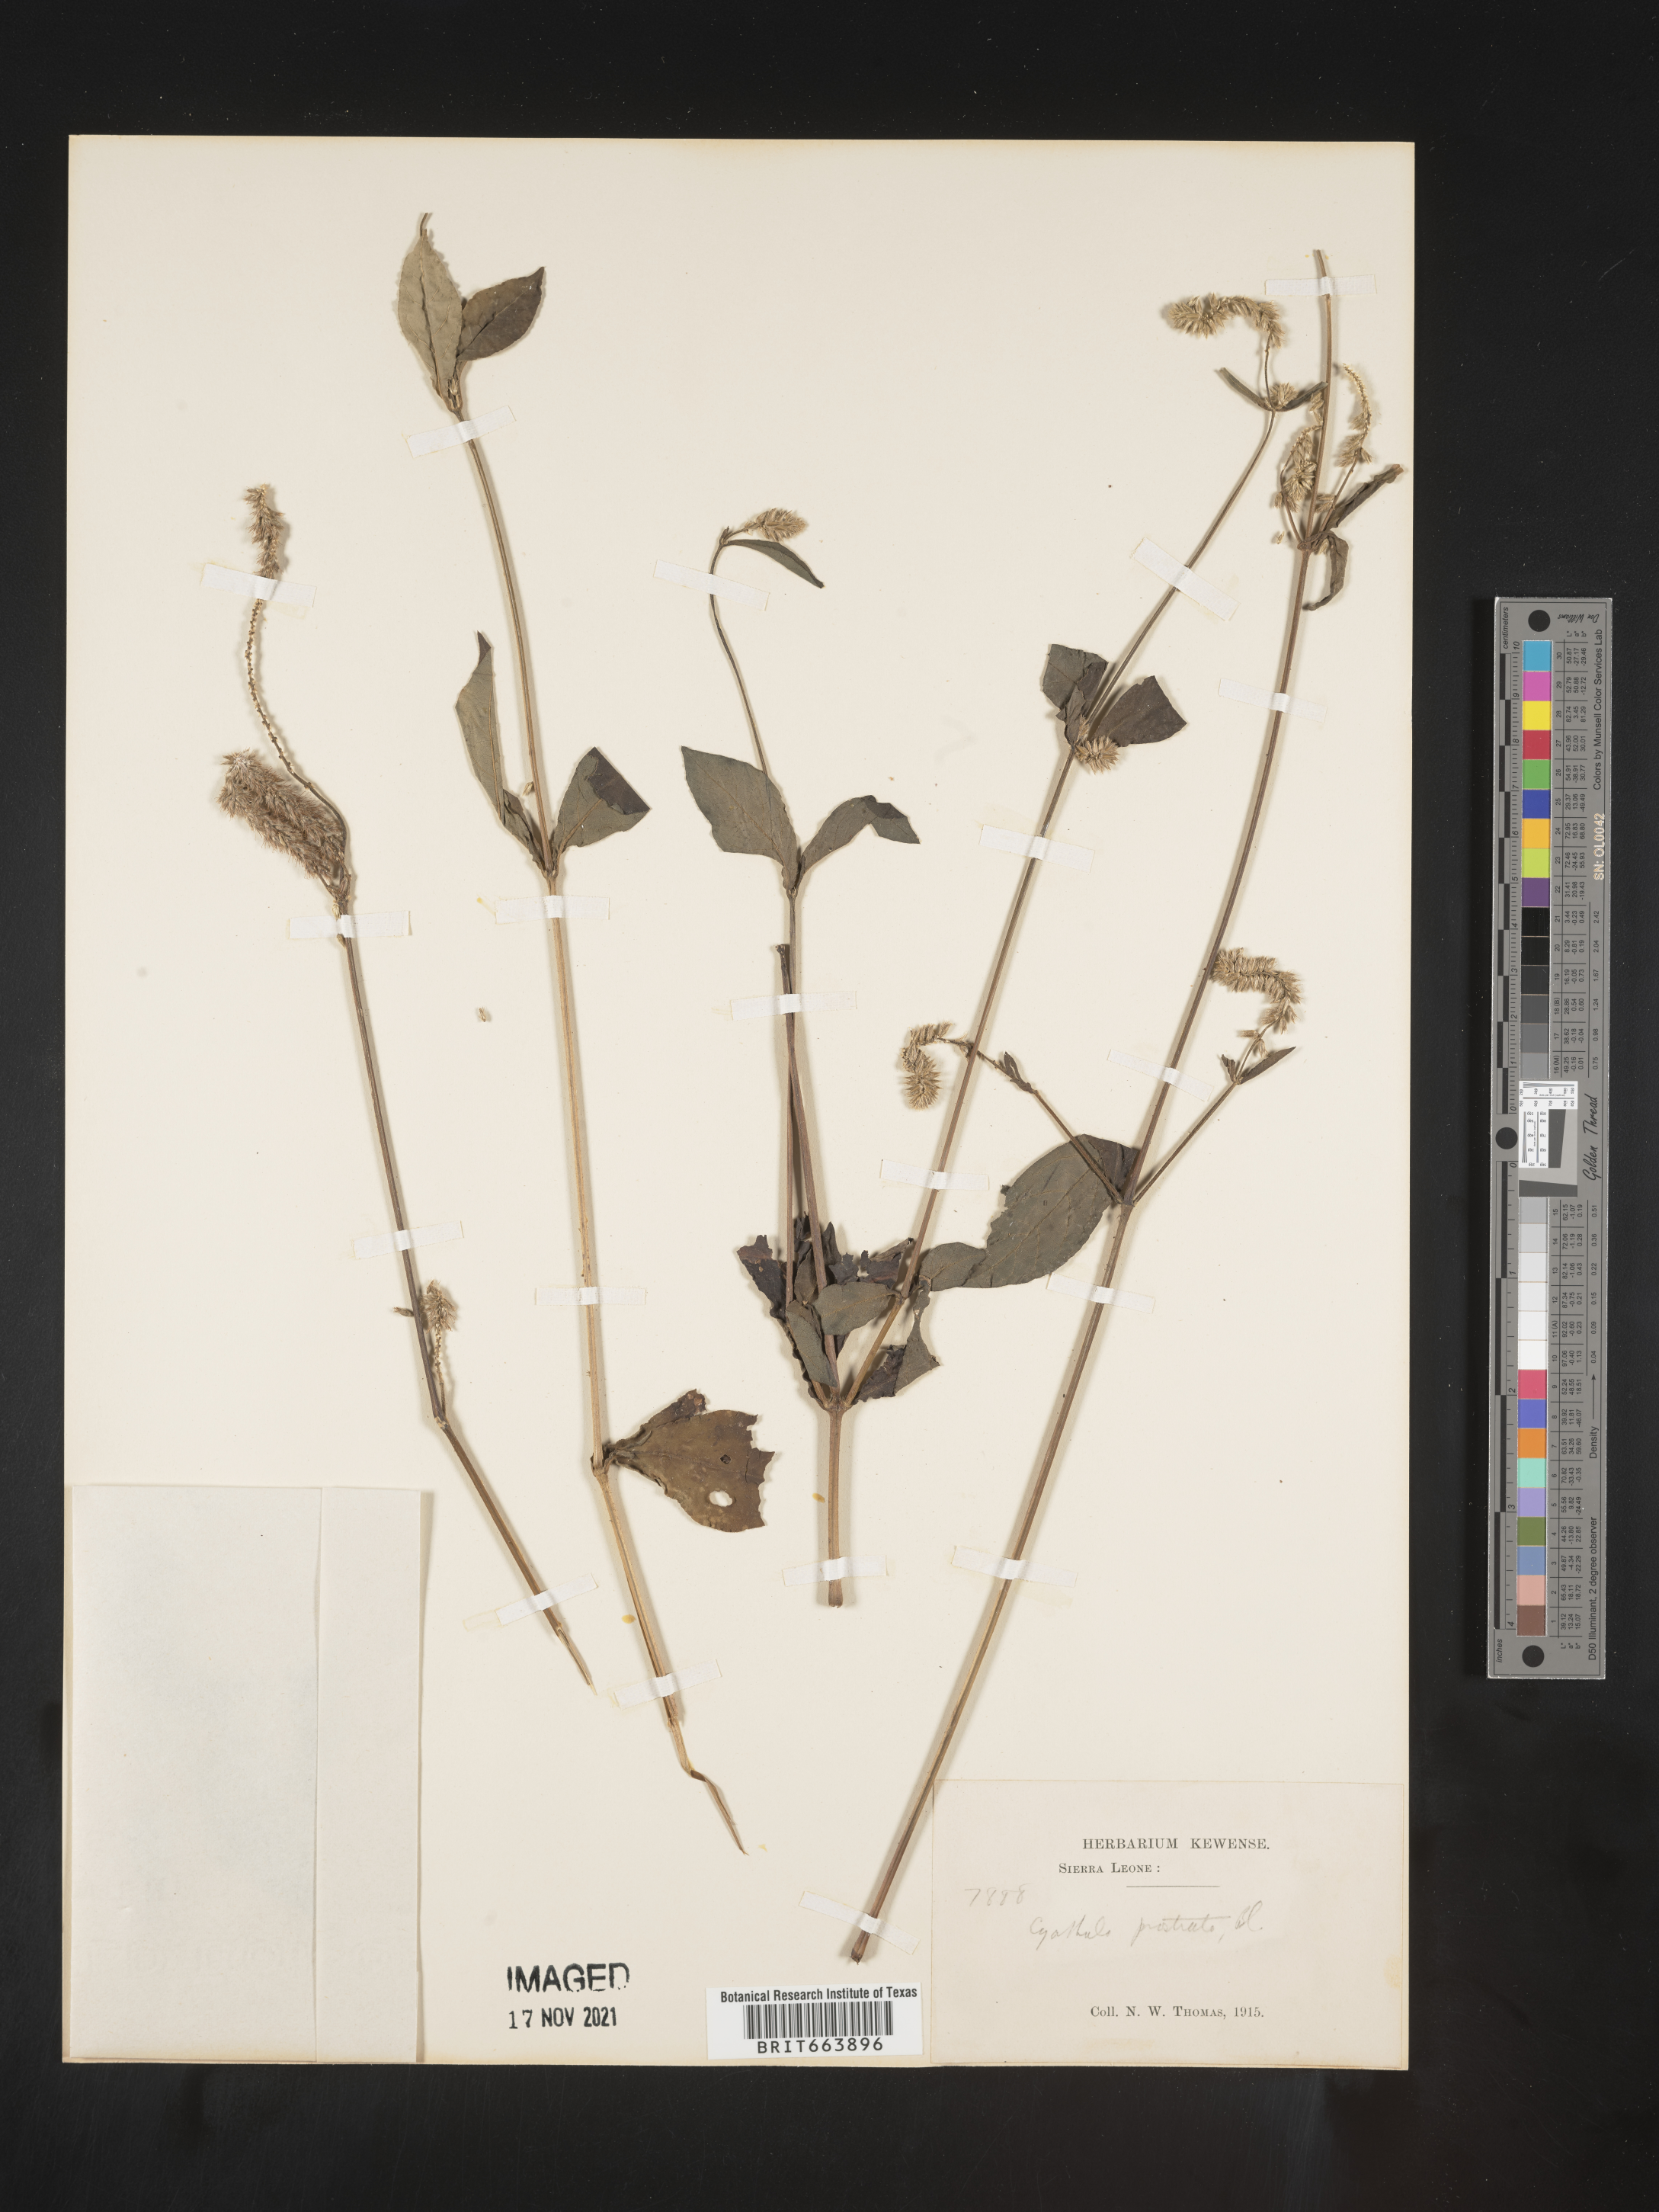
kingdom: Plantae
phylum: Tracheophyta
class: Magnoliopsida
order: Caryophyllales
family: Amaranthaceae
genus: Cyathula
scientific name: Cyathula
